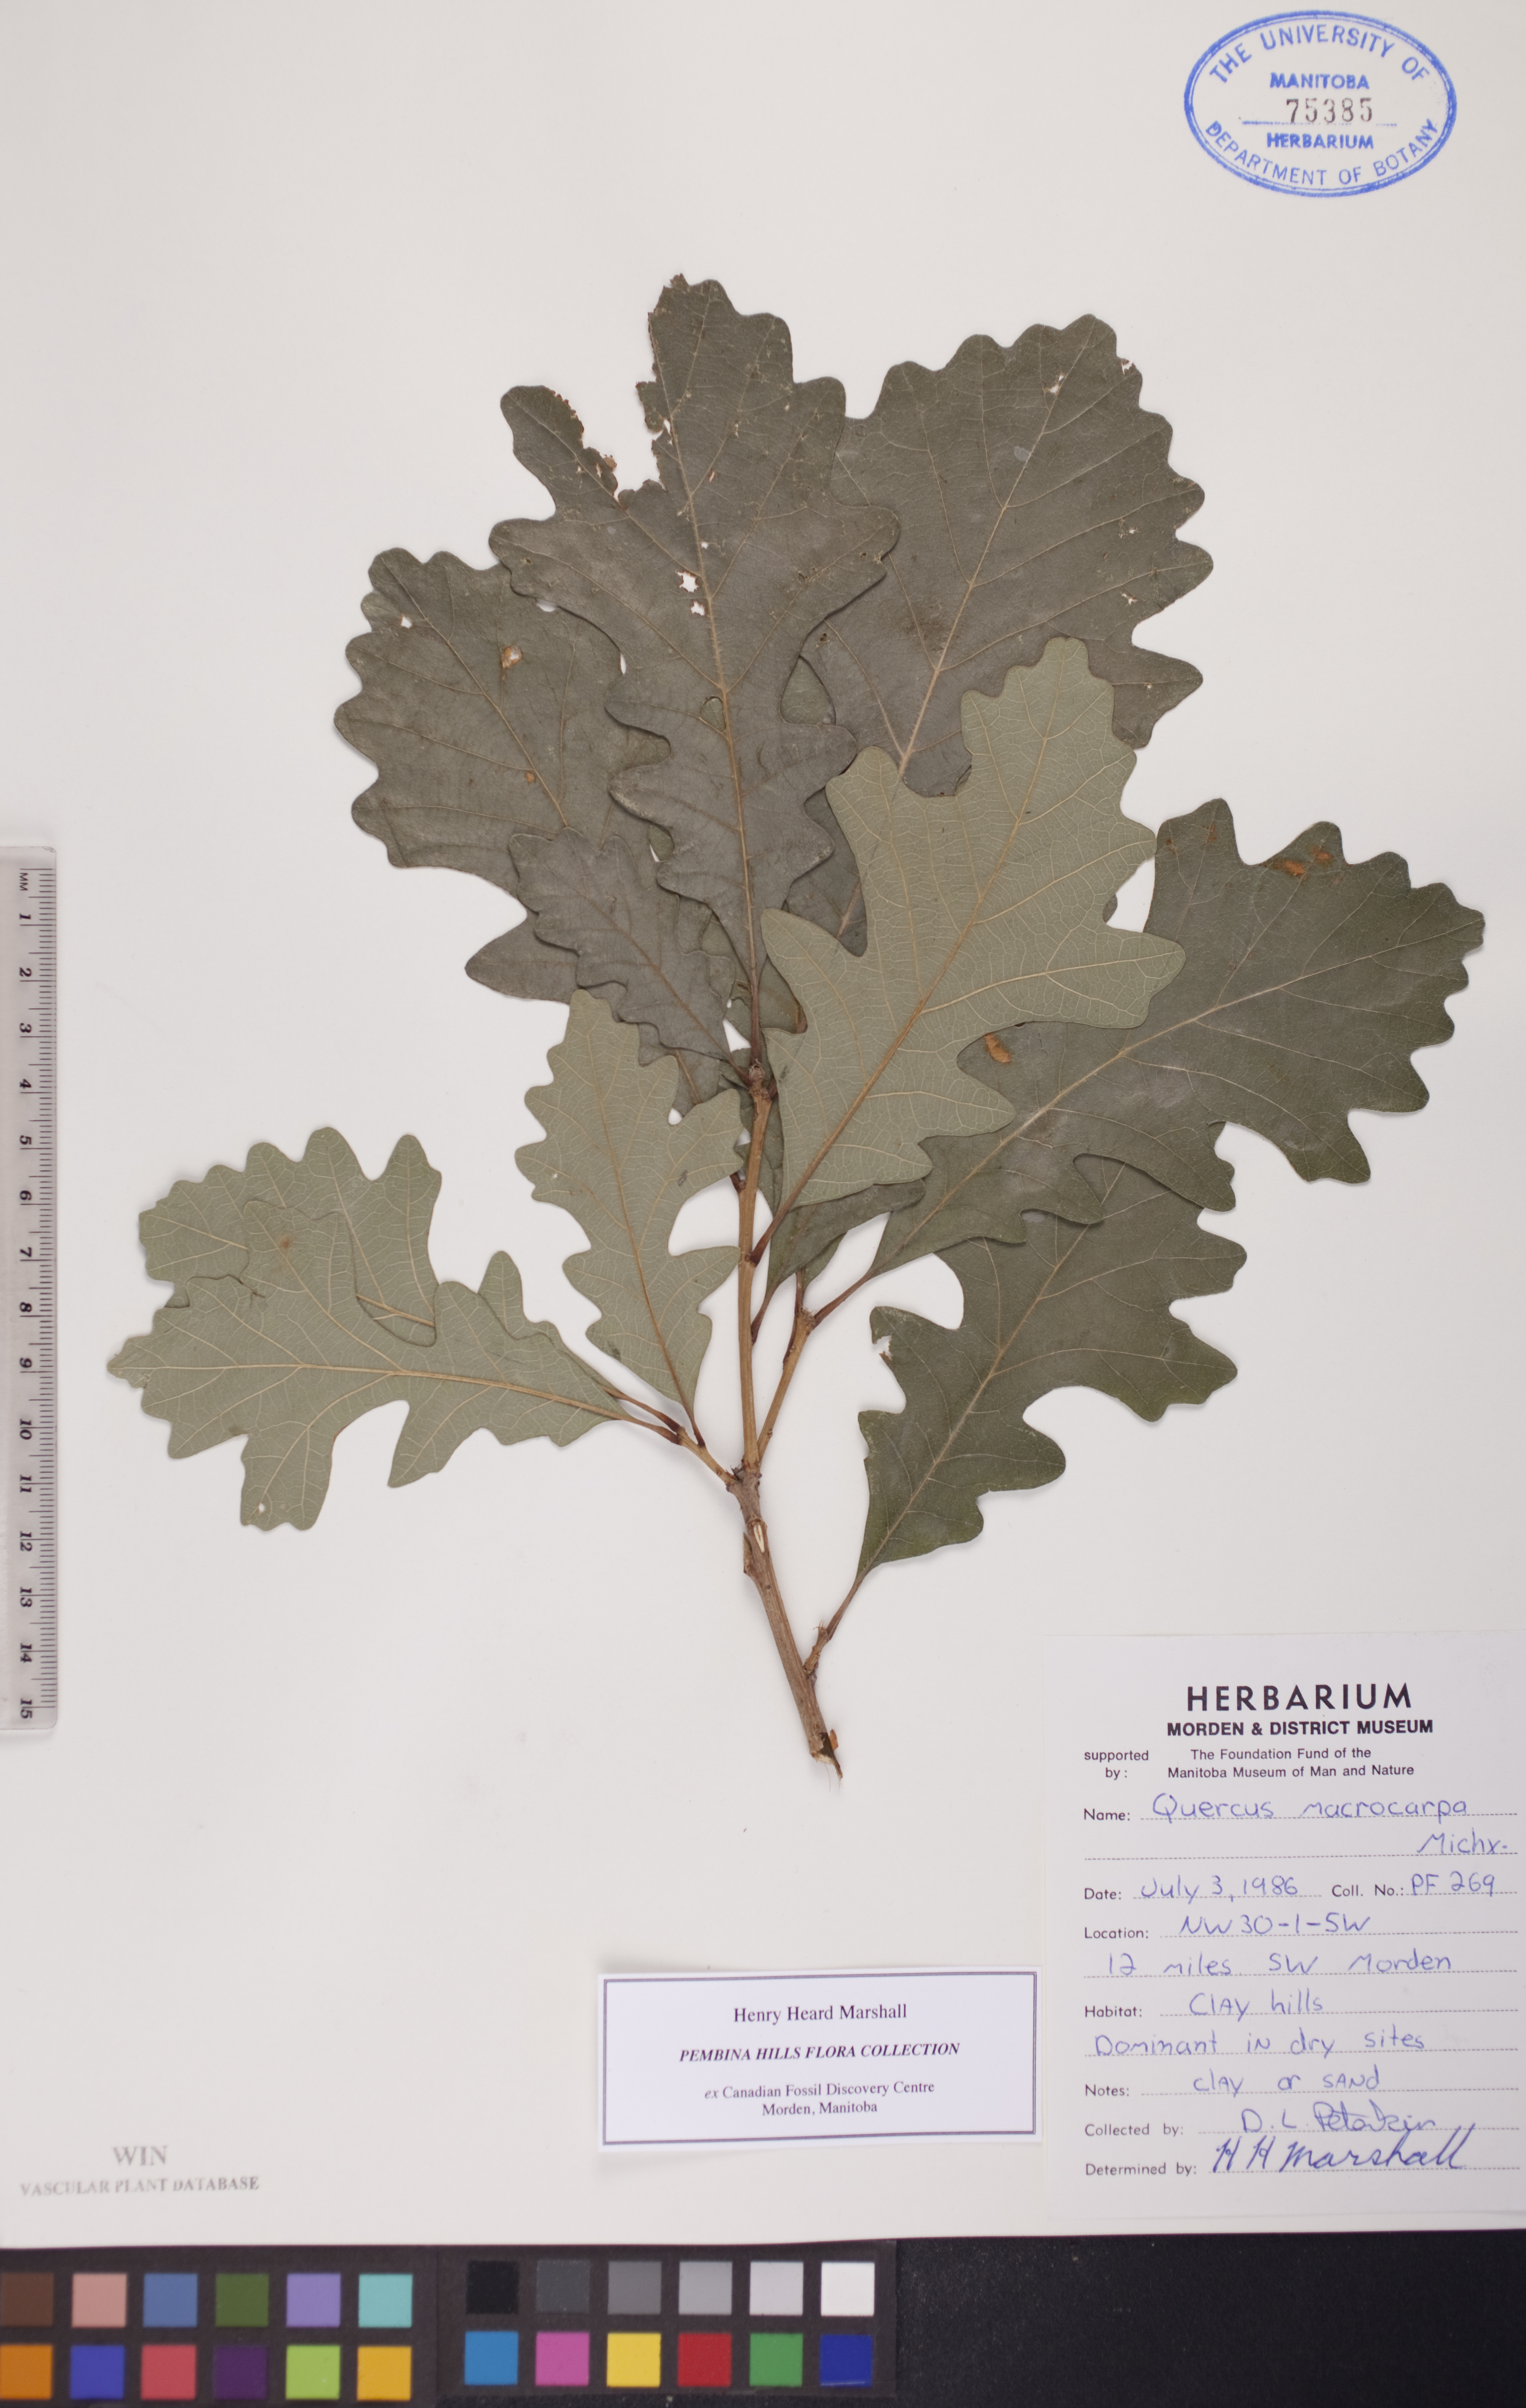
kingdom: Plantae
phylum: Tracheophyta
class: Magnoliopsida
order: Fagales
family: Fagaceae
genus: Quercus
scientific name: Quercus macrocarpa
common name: Bur oak
